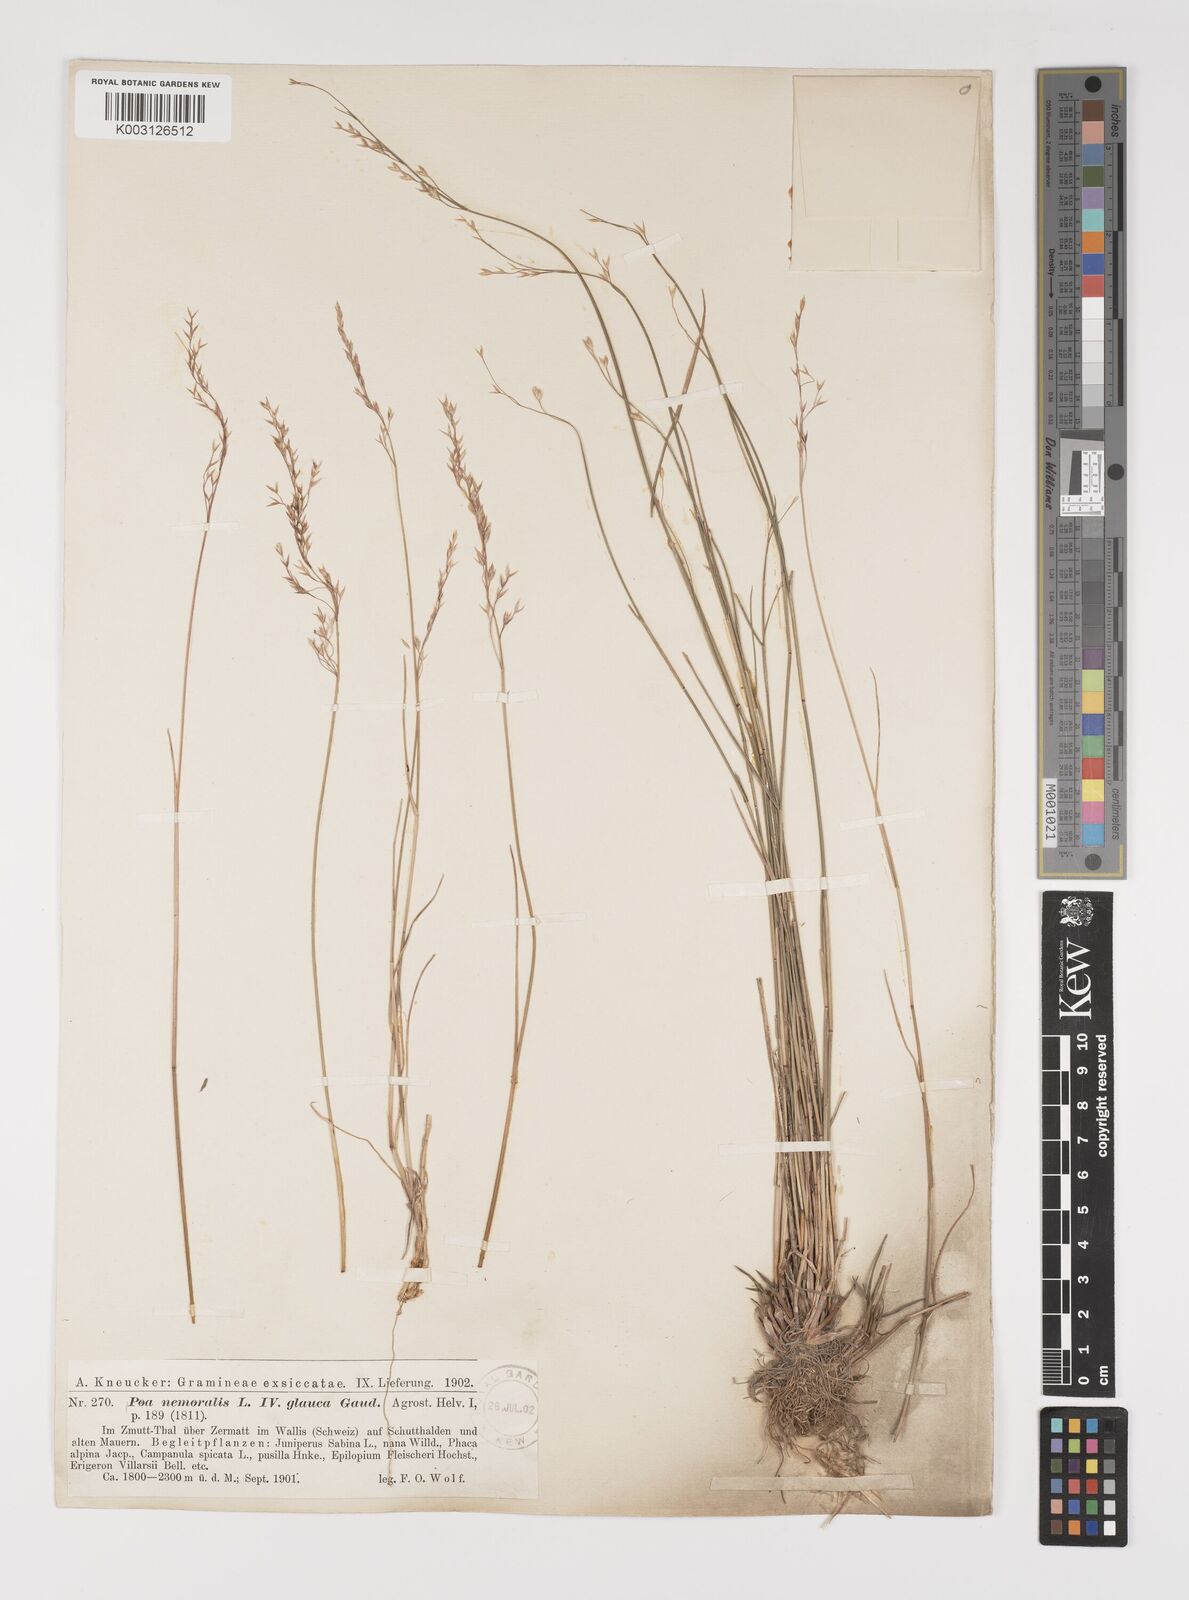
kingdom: Plantae
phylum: Tracheophyta
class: Liliopsida
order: Poales
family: Poaceae
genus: Poa
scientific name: Poa nemoralis
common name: Wood bluegrass
